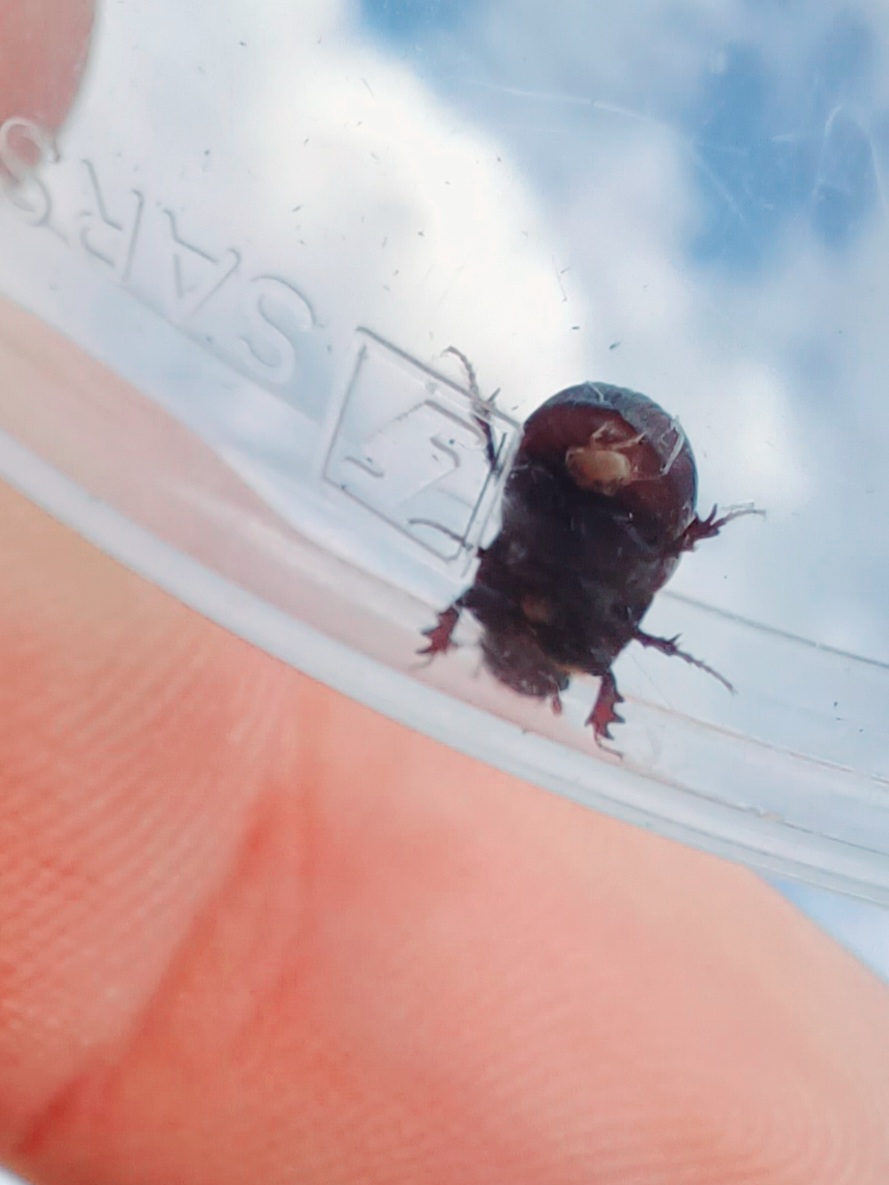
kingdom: Animalia
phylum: Arthropoda
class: Insecta
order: Coleoptera
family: Scarabaeidae
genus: Rhodaphodius
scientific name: Rhodaphodius foetens
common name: Rødbuget møgbille
